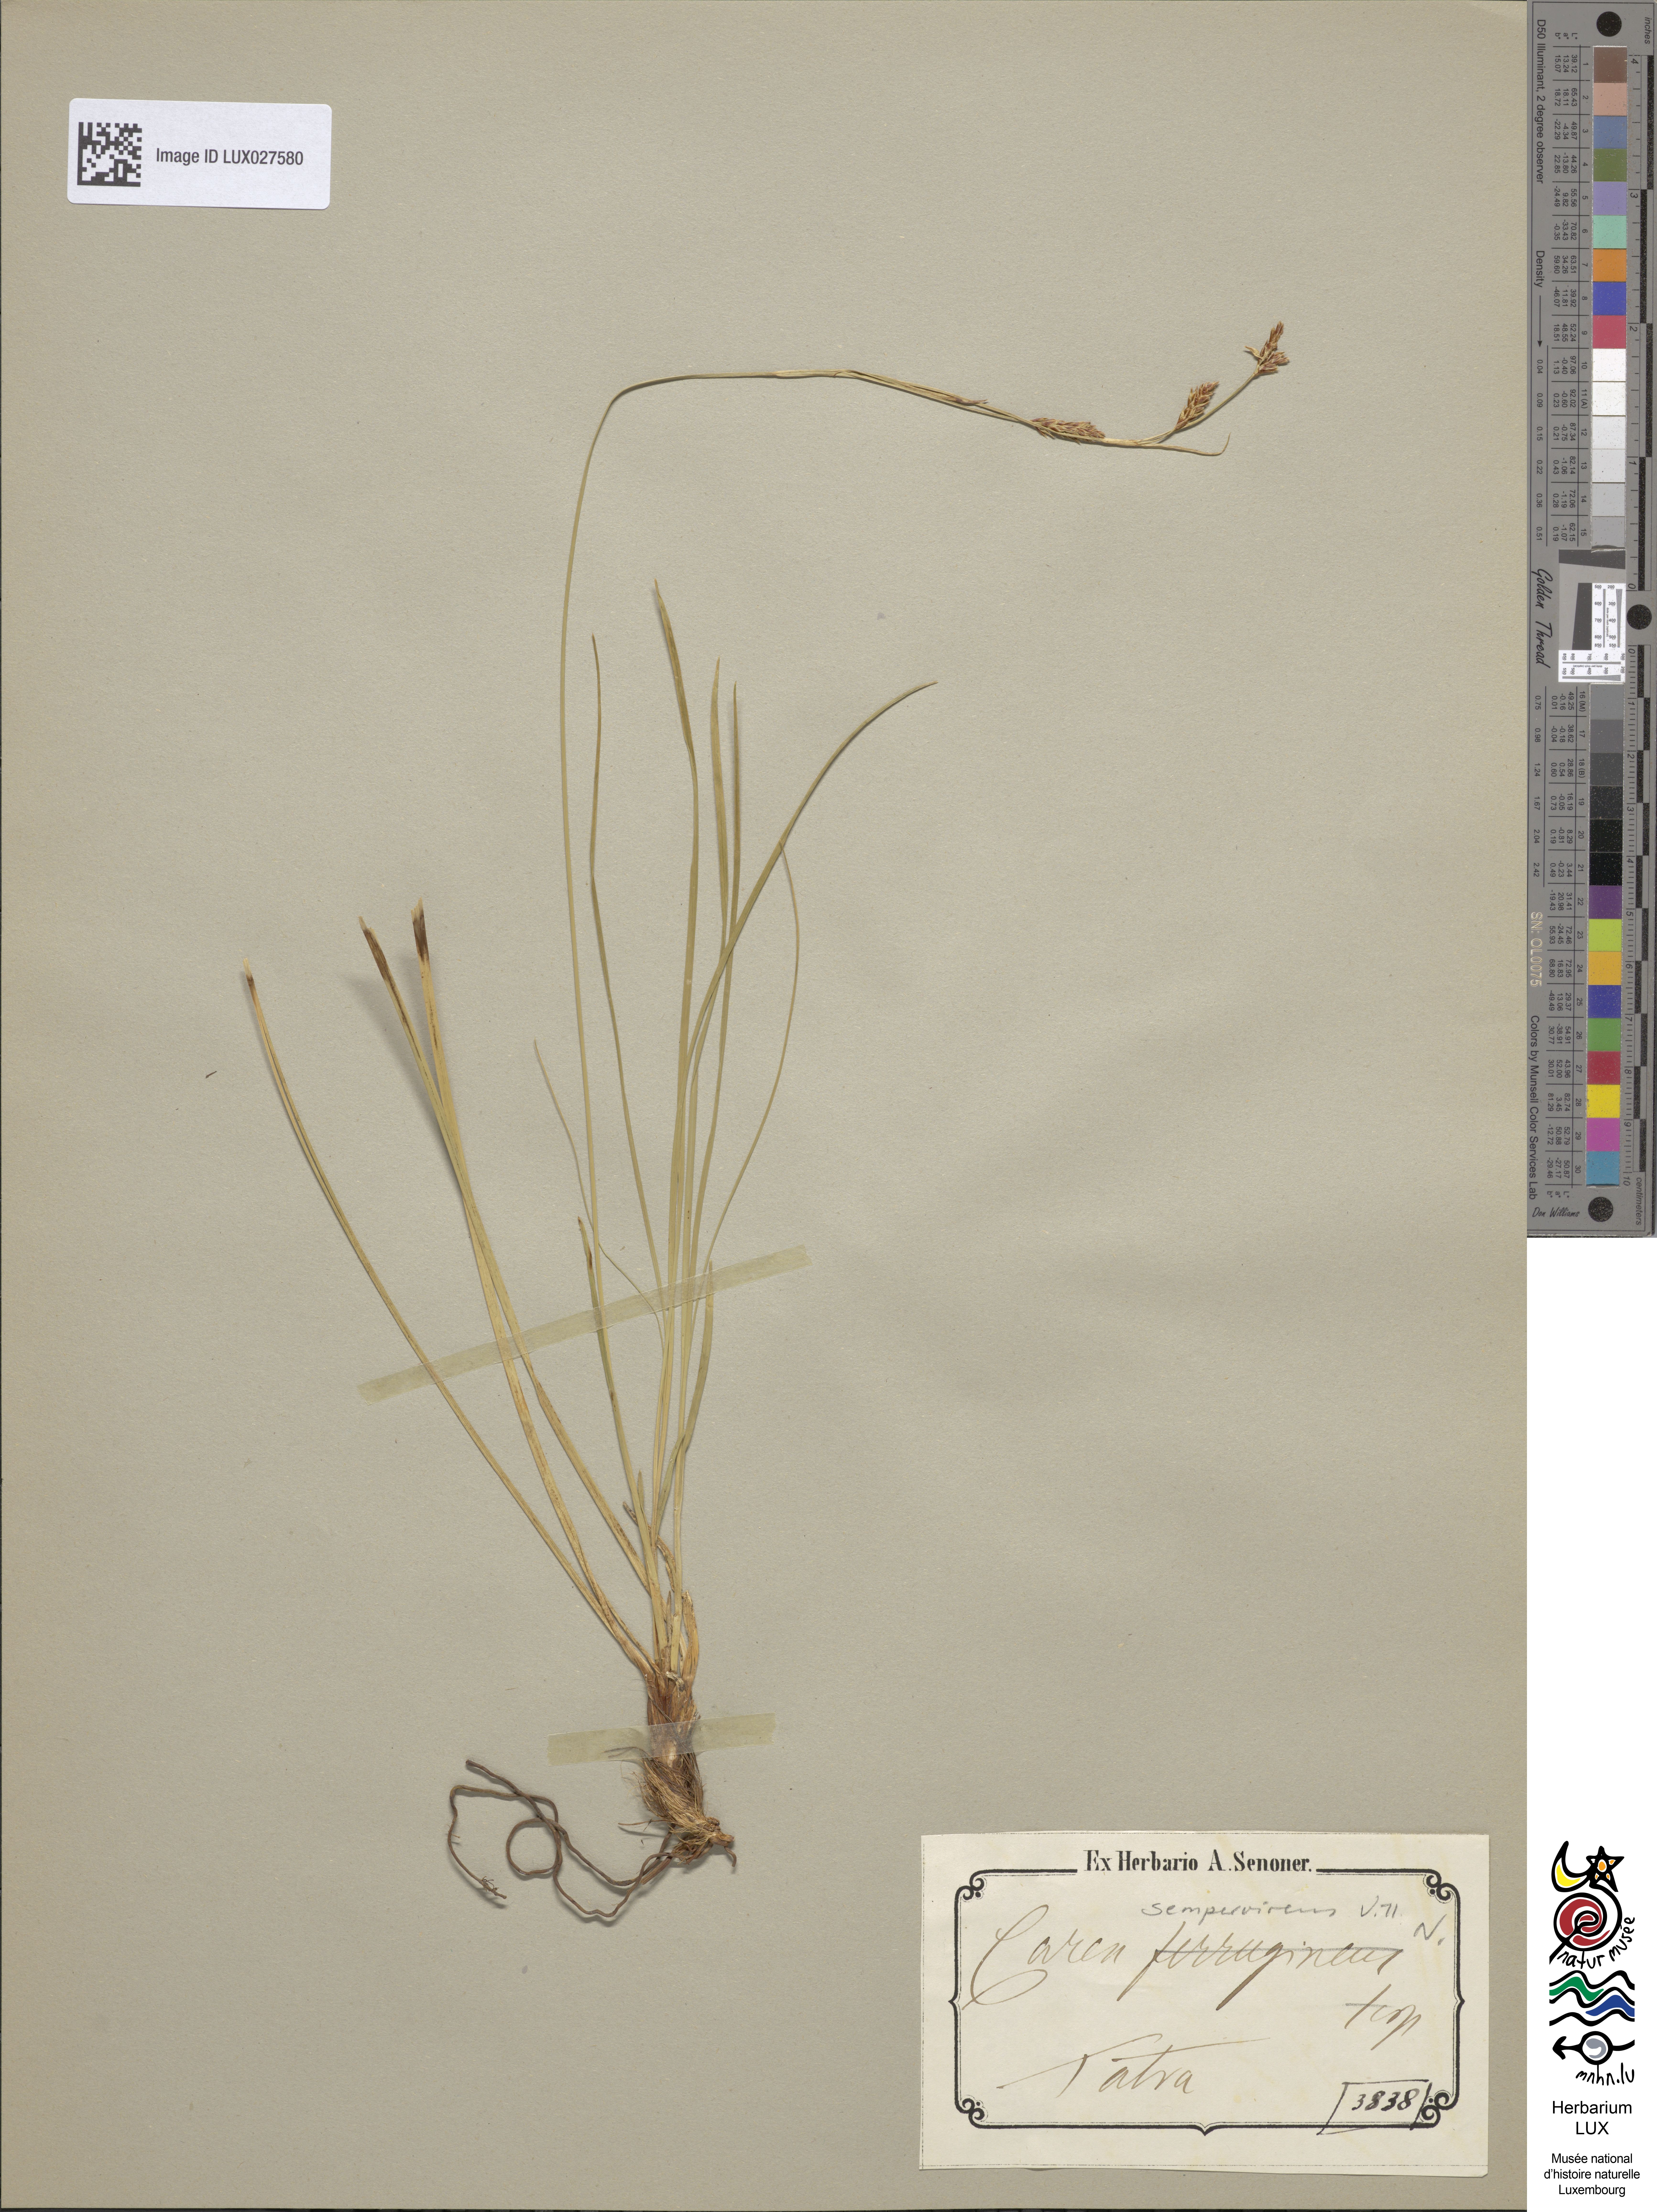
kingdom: Plantae
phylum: Tracheophyta
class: Liliopsida
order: Poales
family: Cyperaceae
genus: Carex
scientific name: Carex ferruginea
